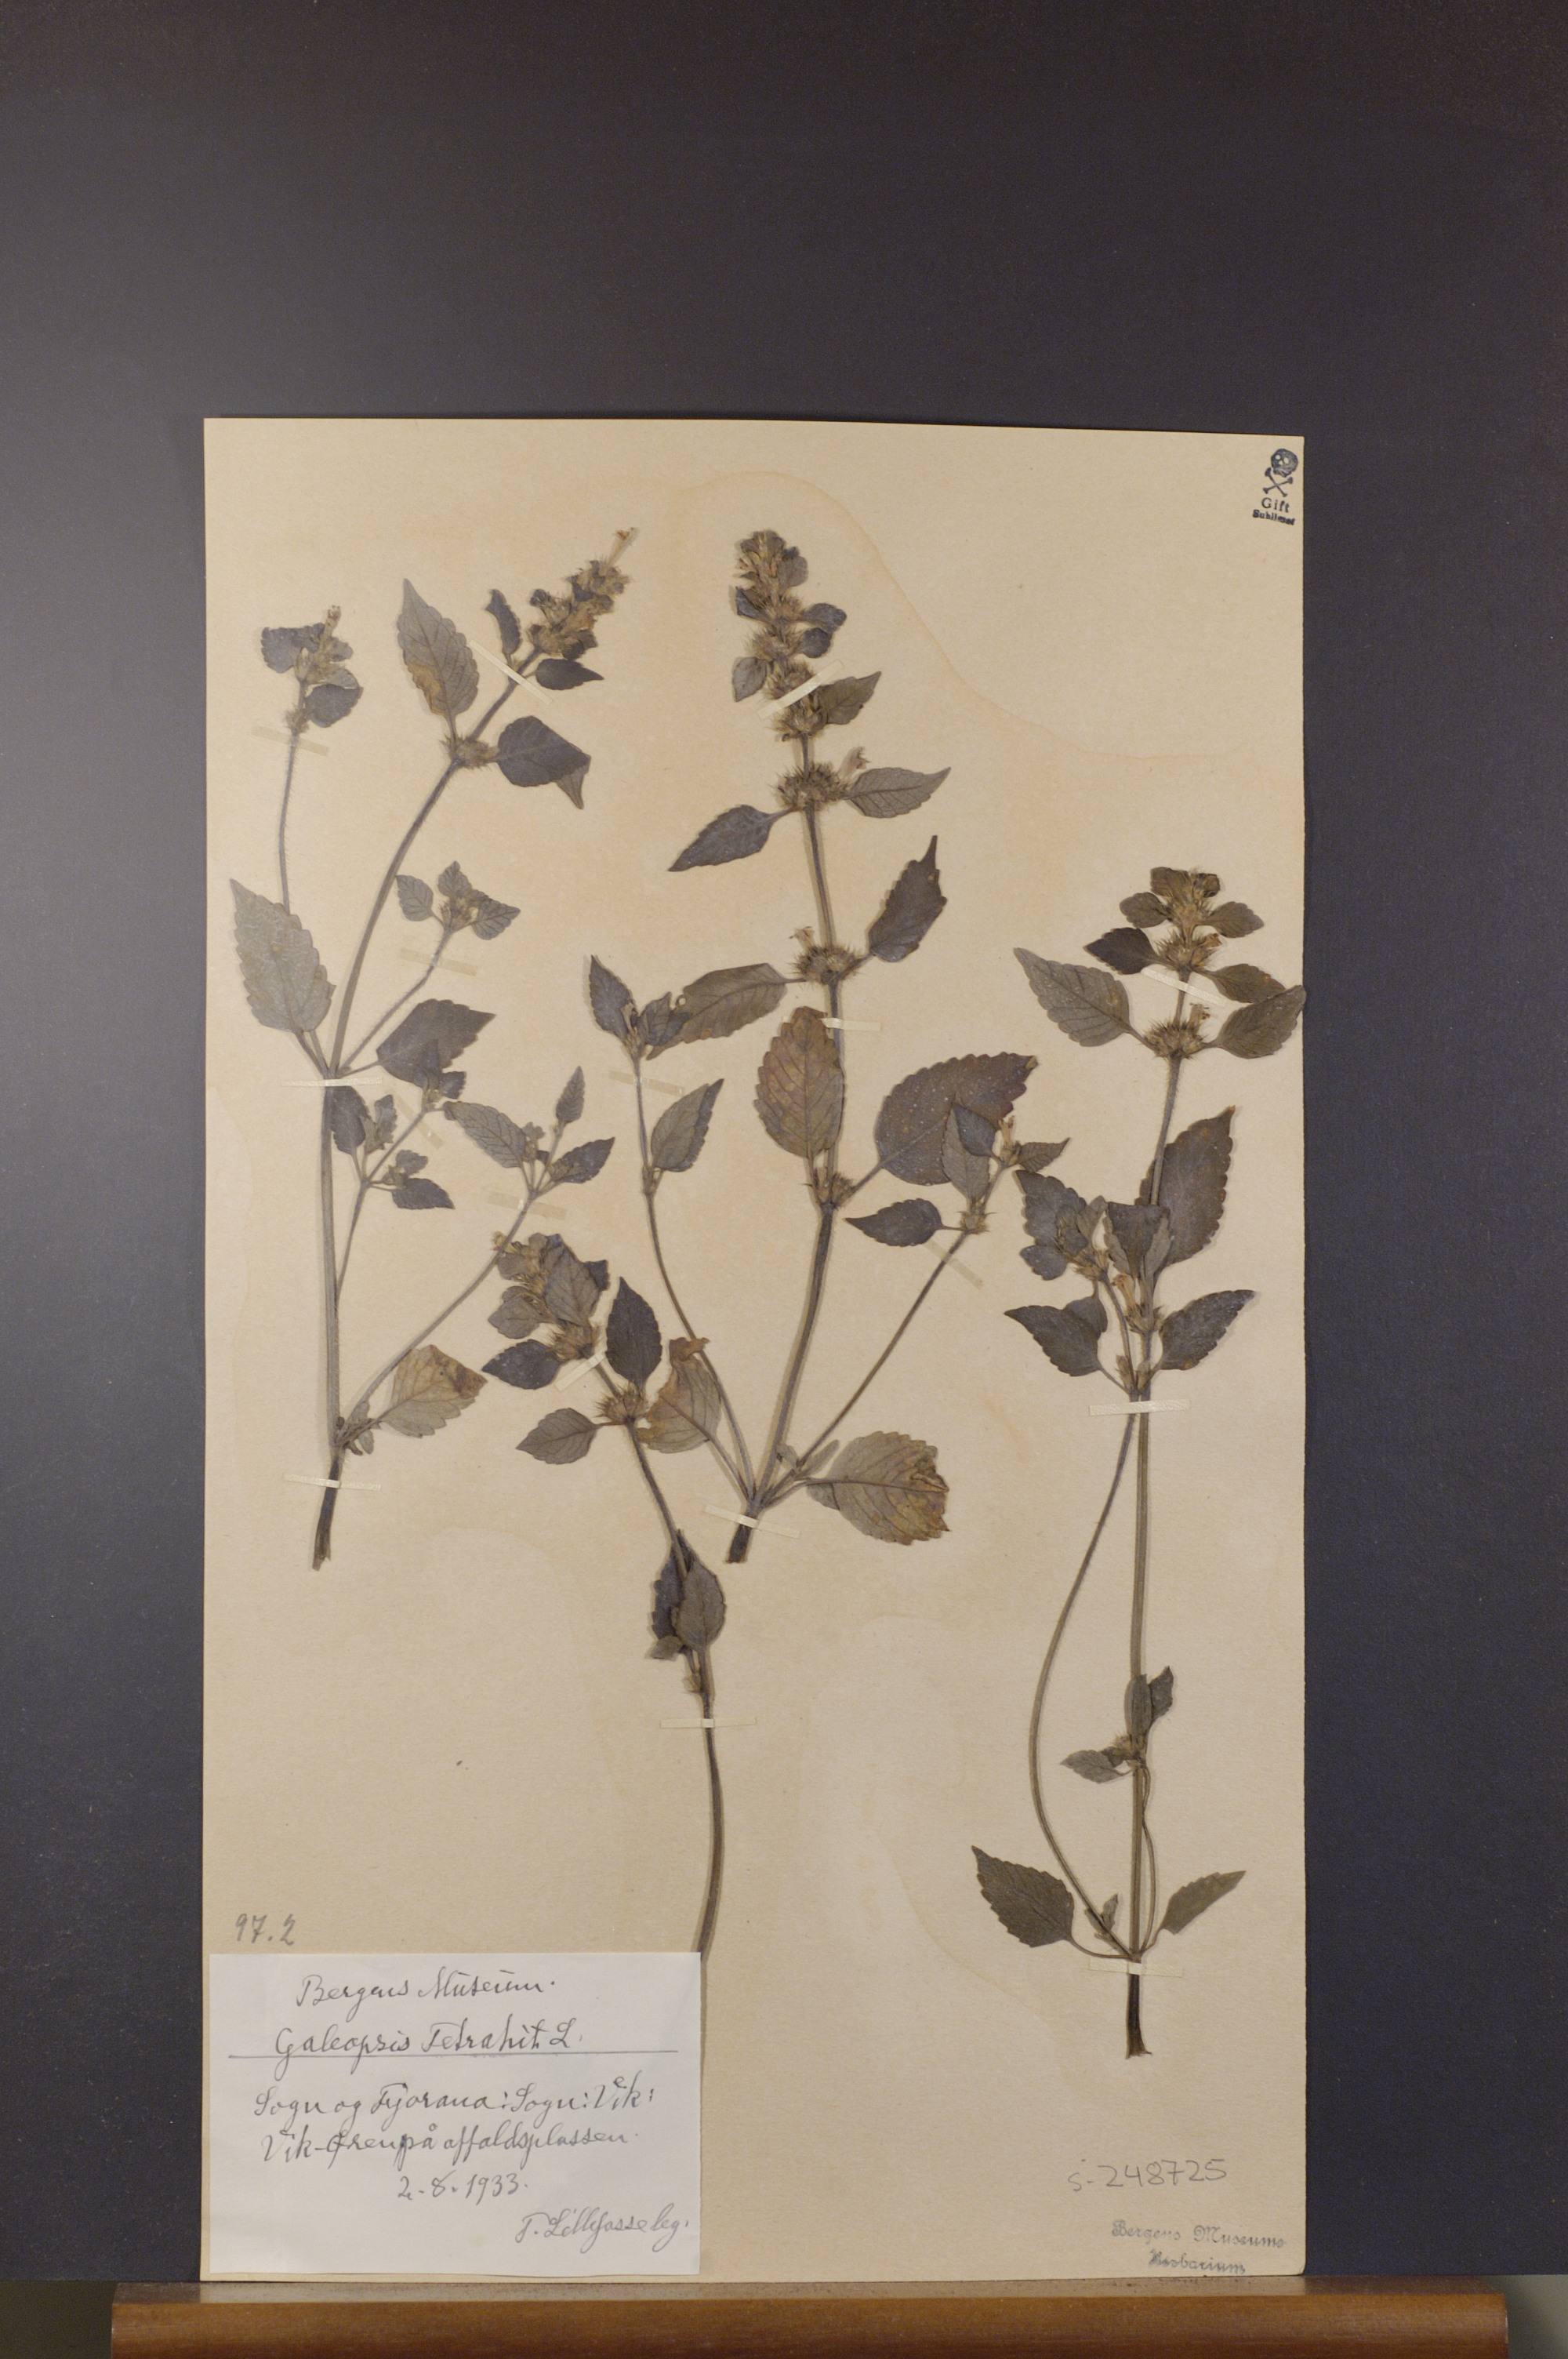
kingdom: Plantae
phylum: Tracheophyta
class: Magnoliopsida
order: Lamiales
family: Lamiaceae
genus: Galeopsis
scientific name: Galeopsis tetrahit
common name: Common hemp-nettle
